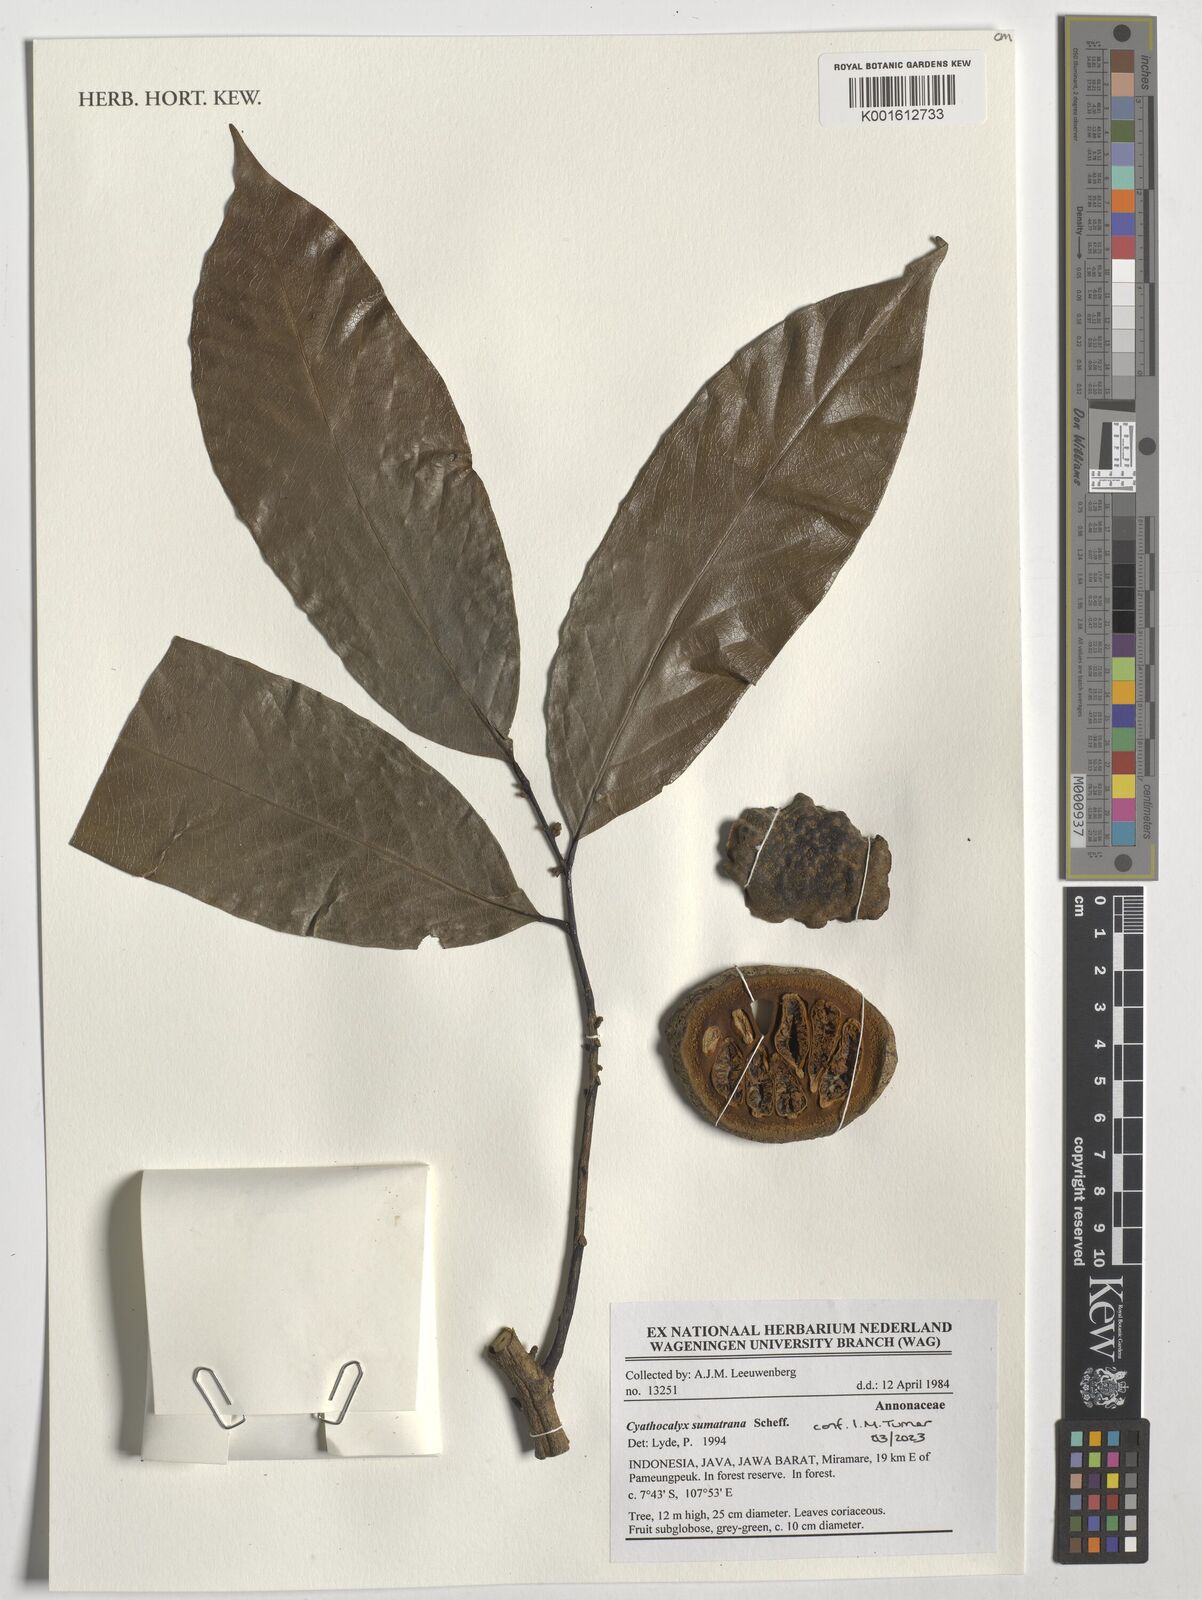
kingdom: Plantae
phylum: Tracheophyta
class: Magnoliopsida
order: Magnoliales
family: Annonaceae
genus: Cyathocalyx
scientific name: Cyathocalyx sumatranus
